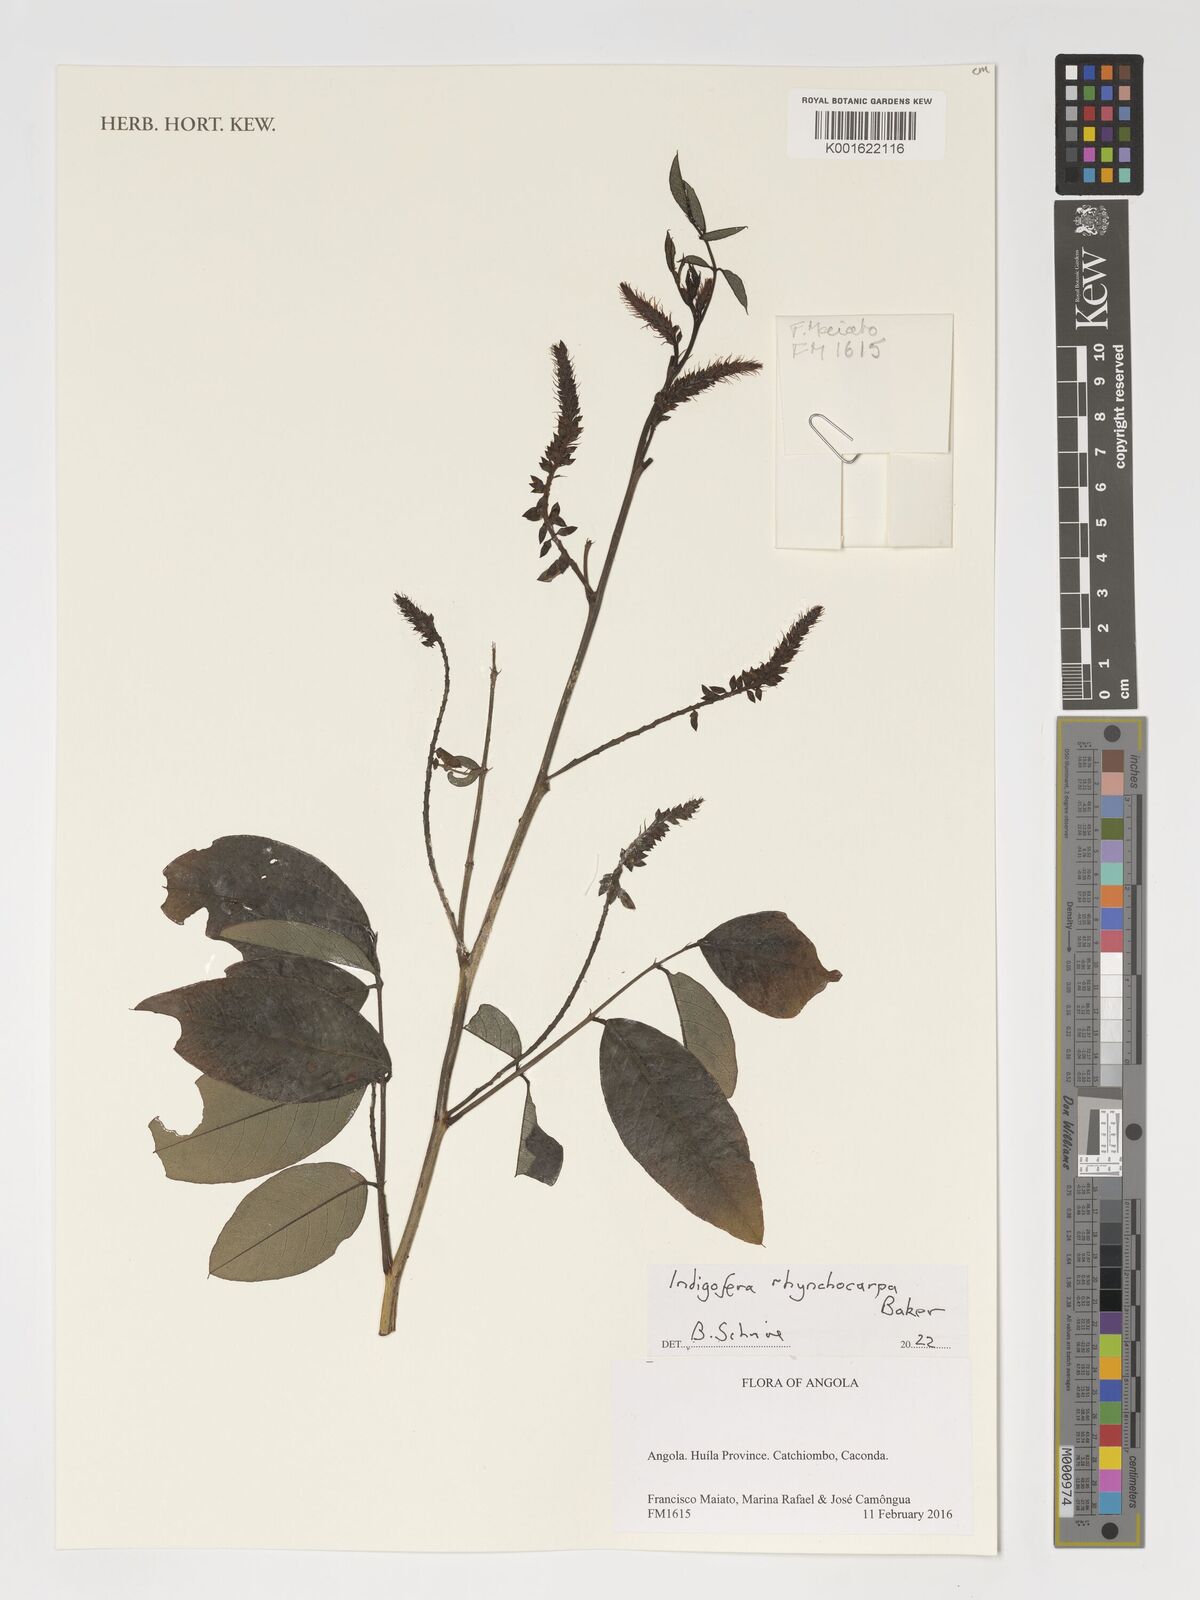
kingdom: Plantae
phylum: Tracheophyta
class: Magnoliopsida
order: Fabales
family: Fabaceae
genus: Indigofera
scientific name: Indigofera rhynchocarpa
